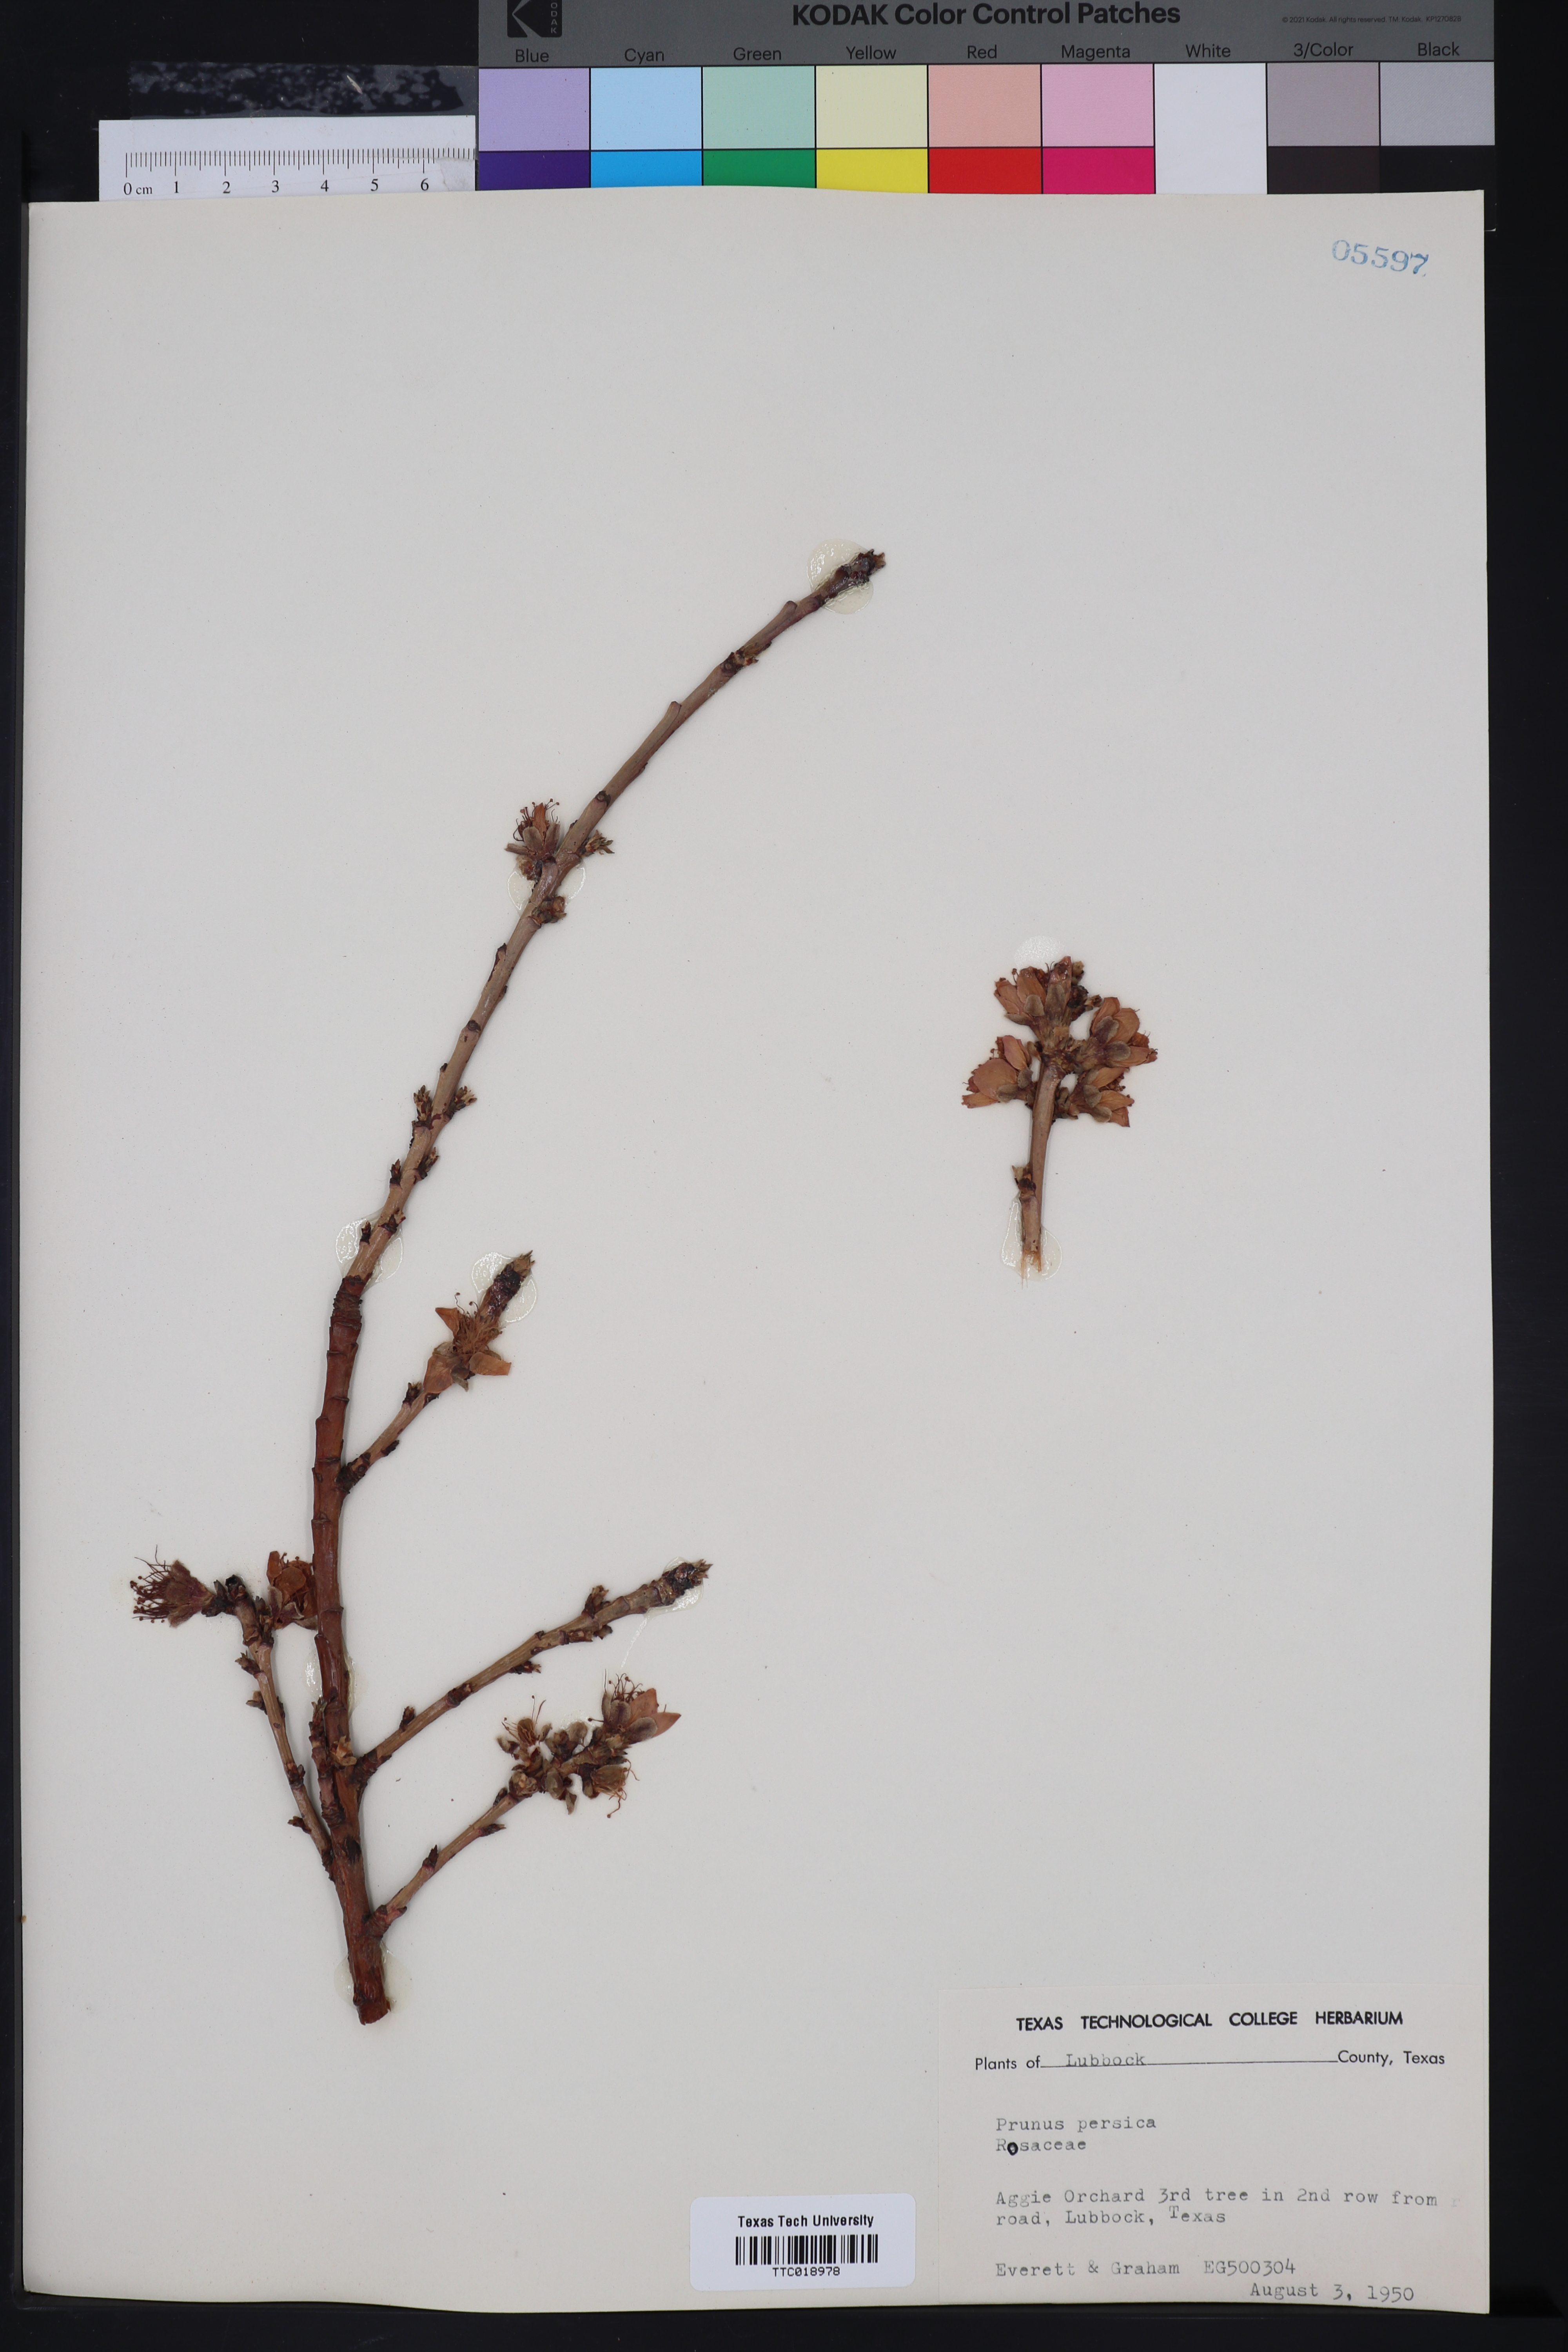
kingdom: Plantae
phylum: Tracheophyta
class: Magnoliopsida
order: Rosales
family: Rosaceae
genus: Prunus
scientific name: Prunus persica
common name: Peach
